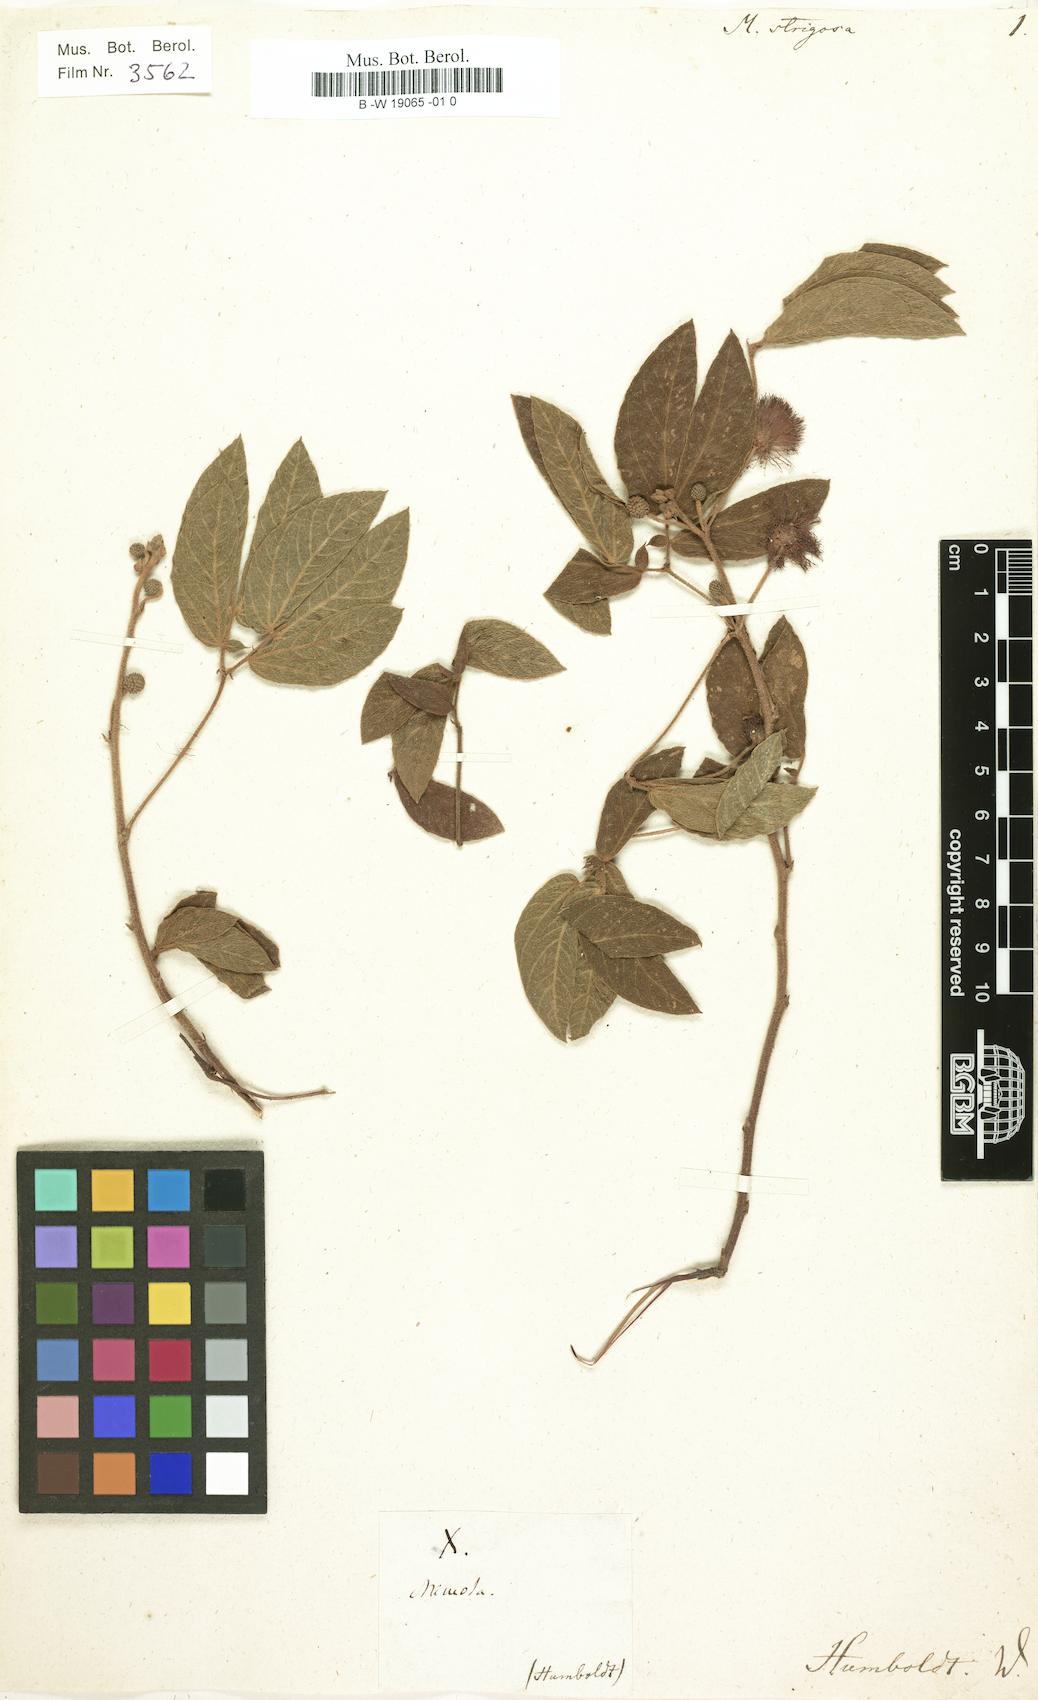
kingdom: Plantae
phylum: Tracheophyta
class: Magnoliopsida
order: Fabales
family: Fabaceae
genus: Mimosa
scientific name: Mimosa albida
